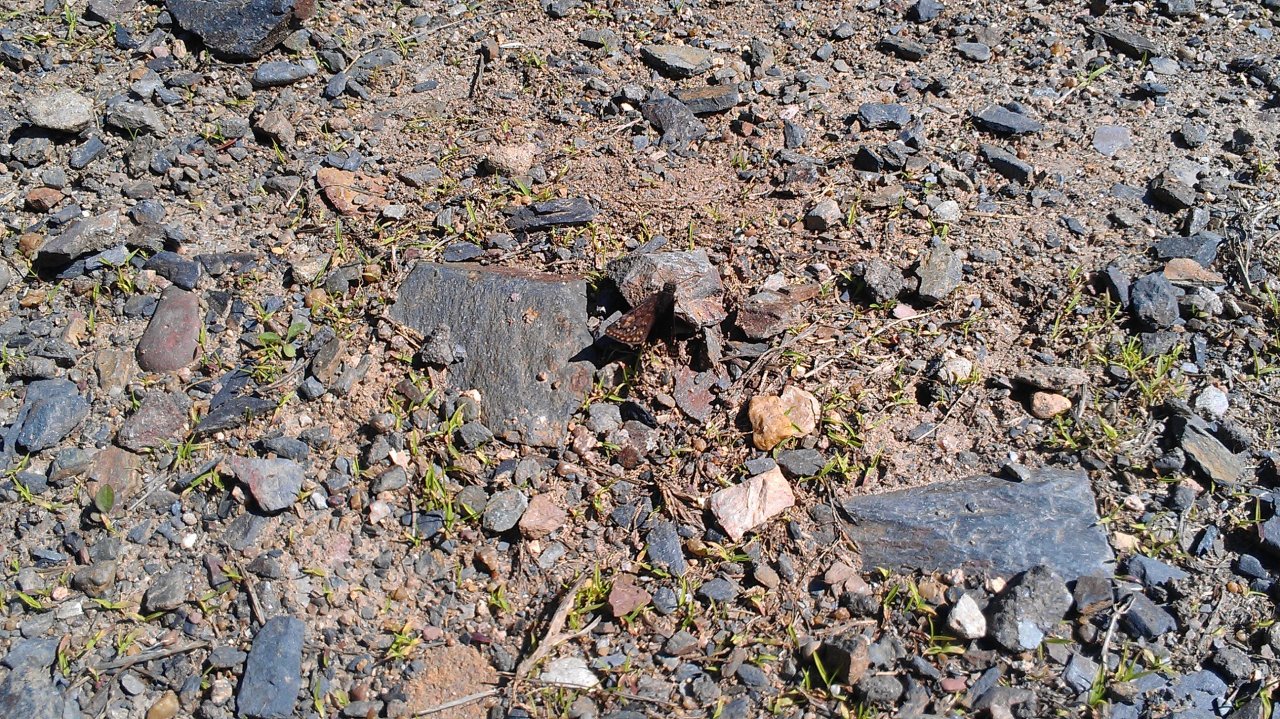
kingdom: Animalia
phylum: Arthropoda
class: Insecta
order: Lepidoptera
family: Hesperiidae
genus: Gesta
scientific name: Gesta
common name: Juvenal's Duskywing
